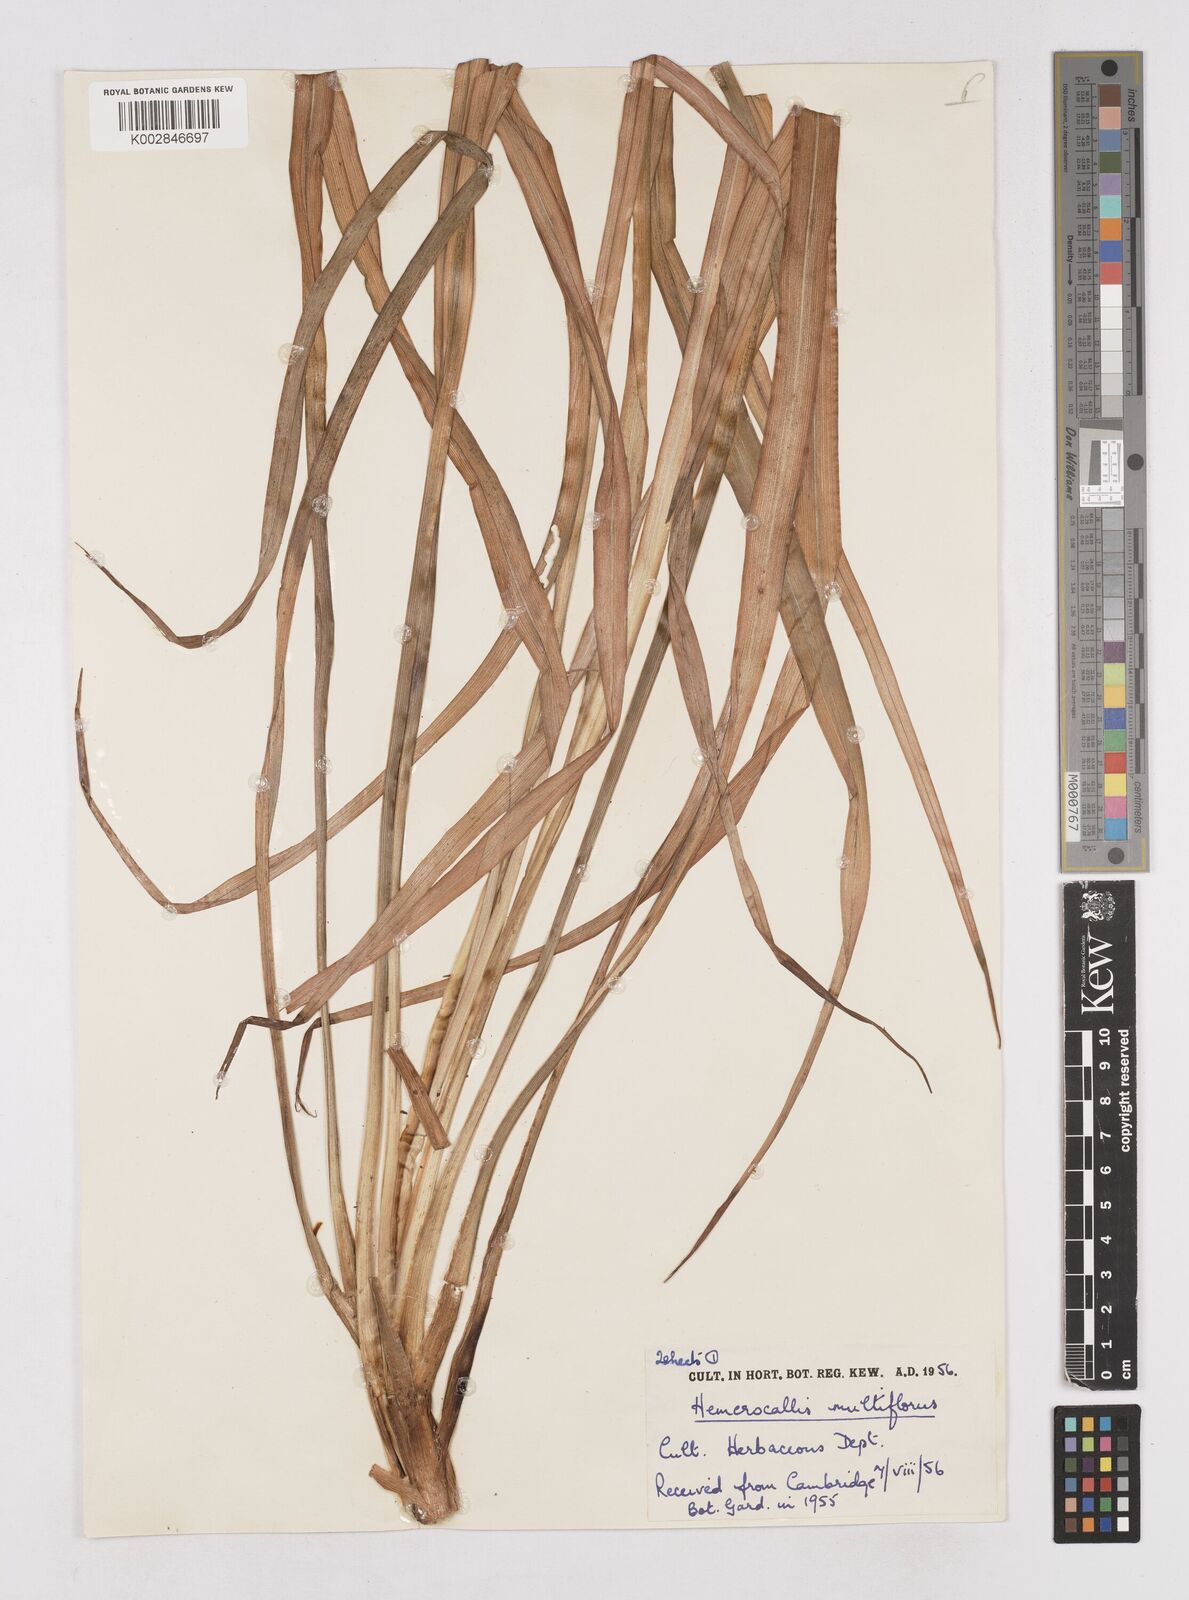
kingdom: Plantae
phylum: Tracheophyta
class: Liliopsida
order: Asparagales
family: Asphodelaceae
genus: Hemerocallis
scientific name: Hemerocallis multiflora
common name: Many-flower day-lily
